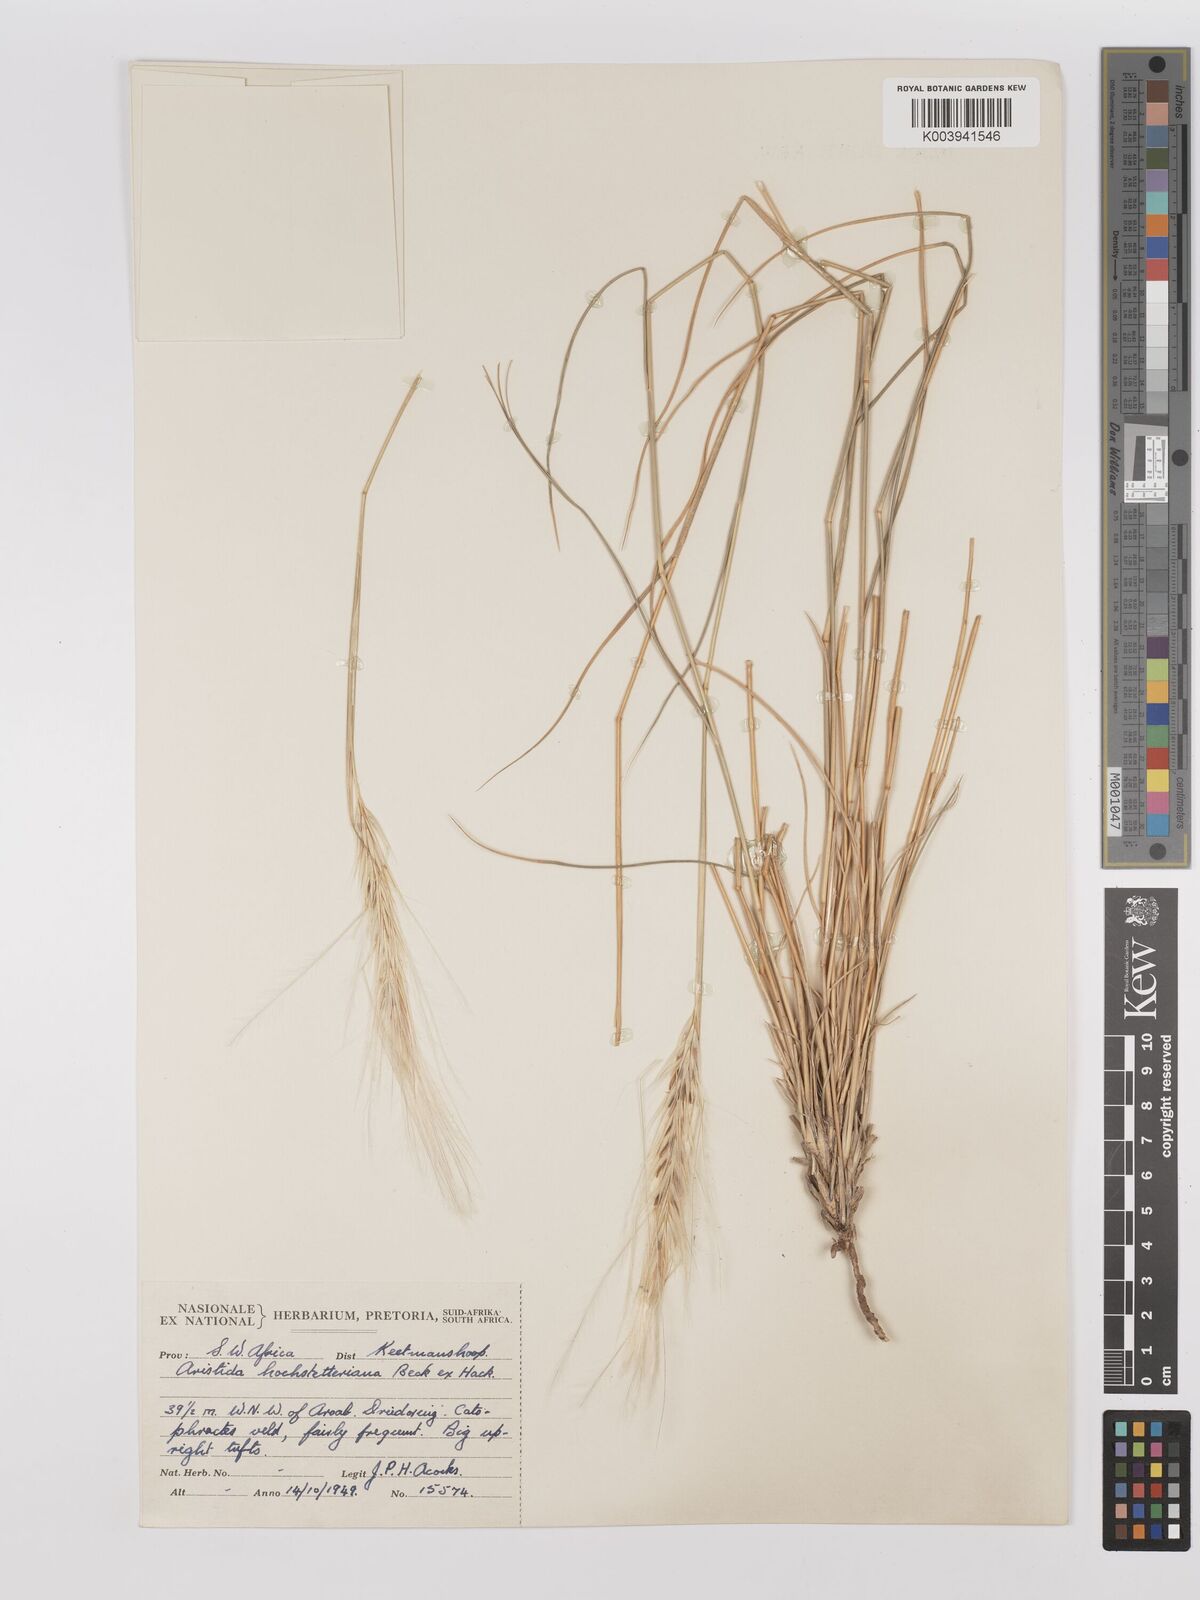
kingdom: Plantae
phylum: Tracheophyta
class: Liliopsida
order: Poales
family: Poaceae
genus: Stipagrostis
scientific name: Stipagrostis hochstetteriana
